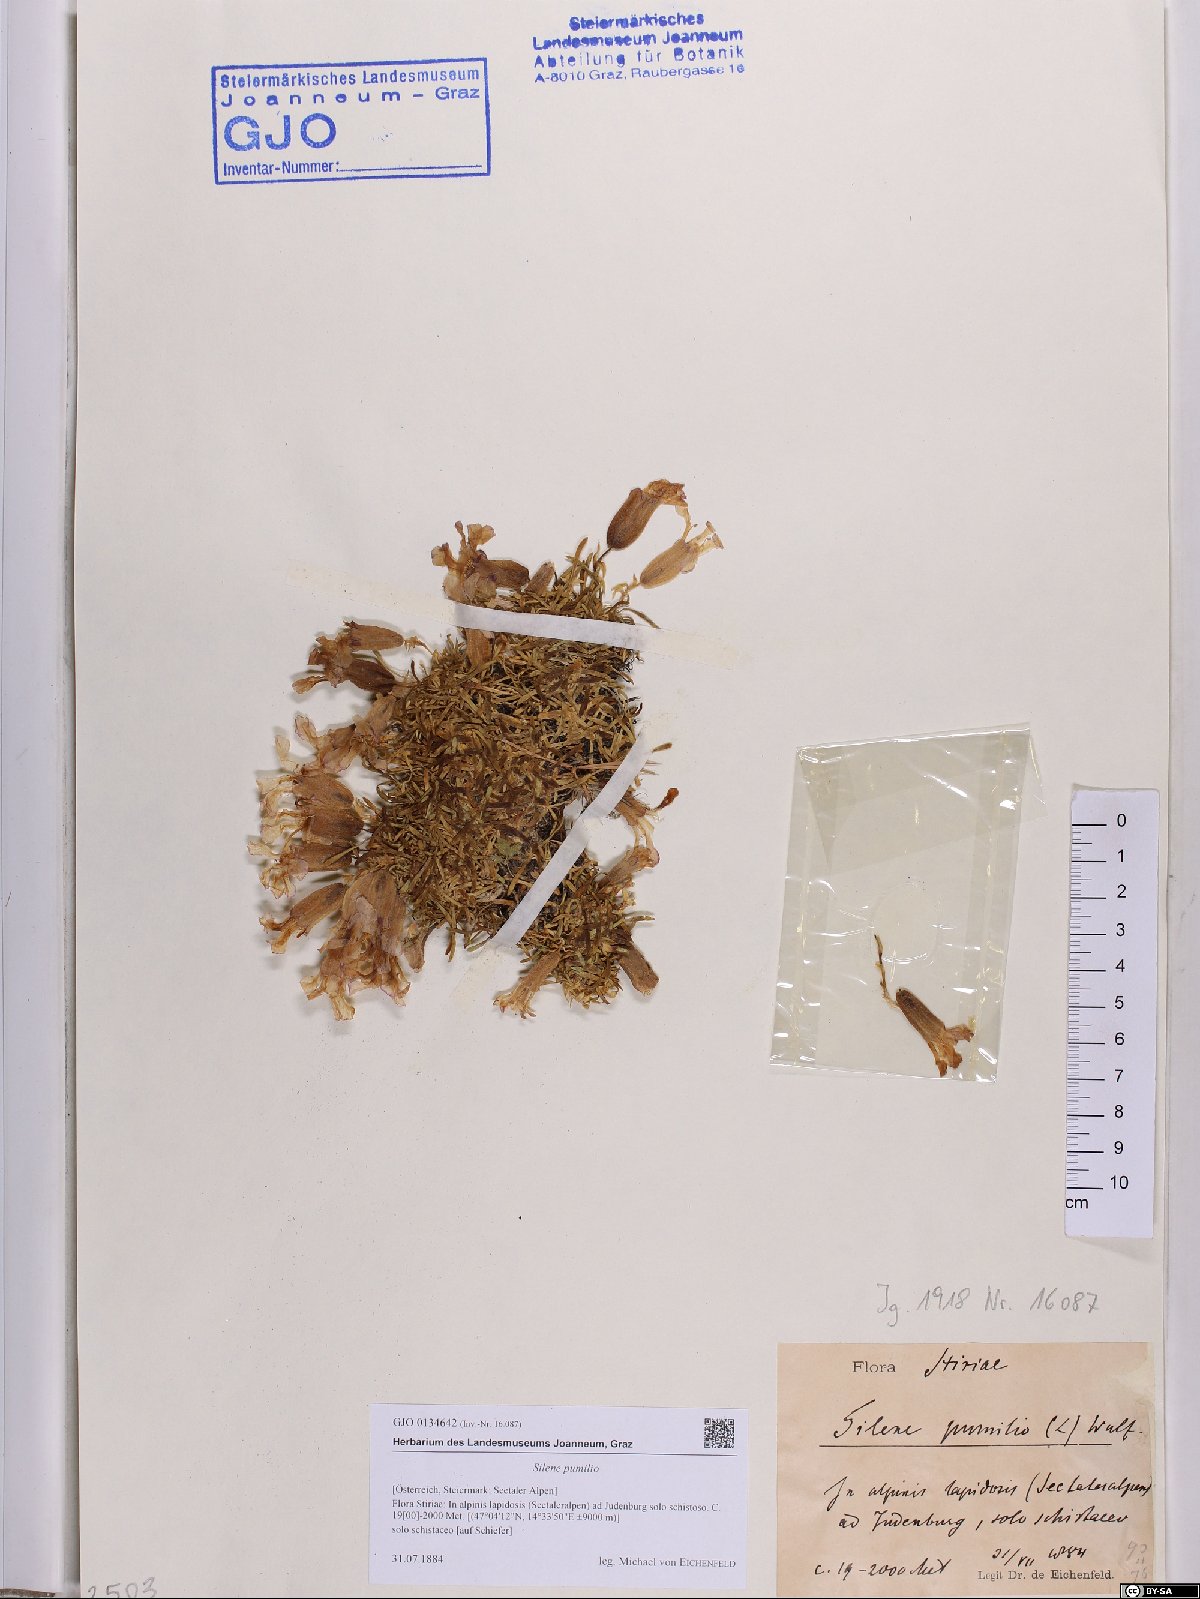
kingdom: Plantae
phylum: Tracheophyta
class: Magnoliopsida
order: Caryophyllales
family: Caryophyllaceae
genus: Saponaria
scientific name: Saponaria pumila
